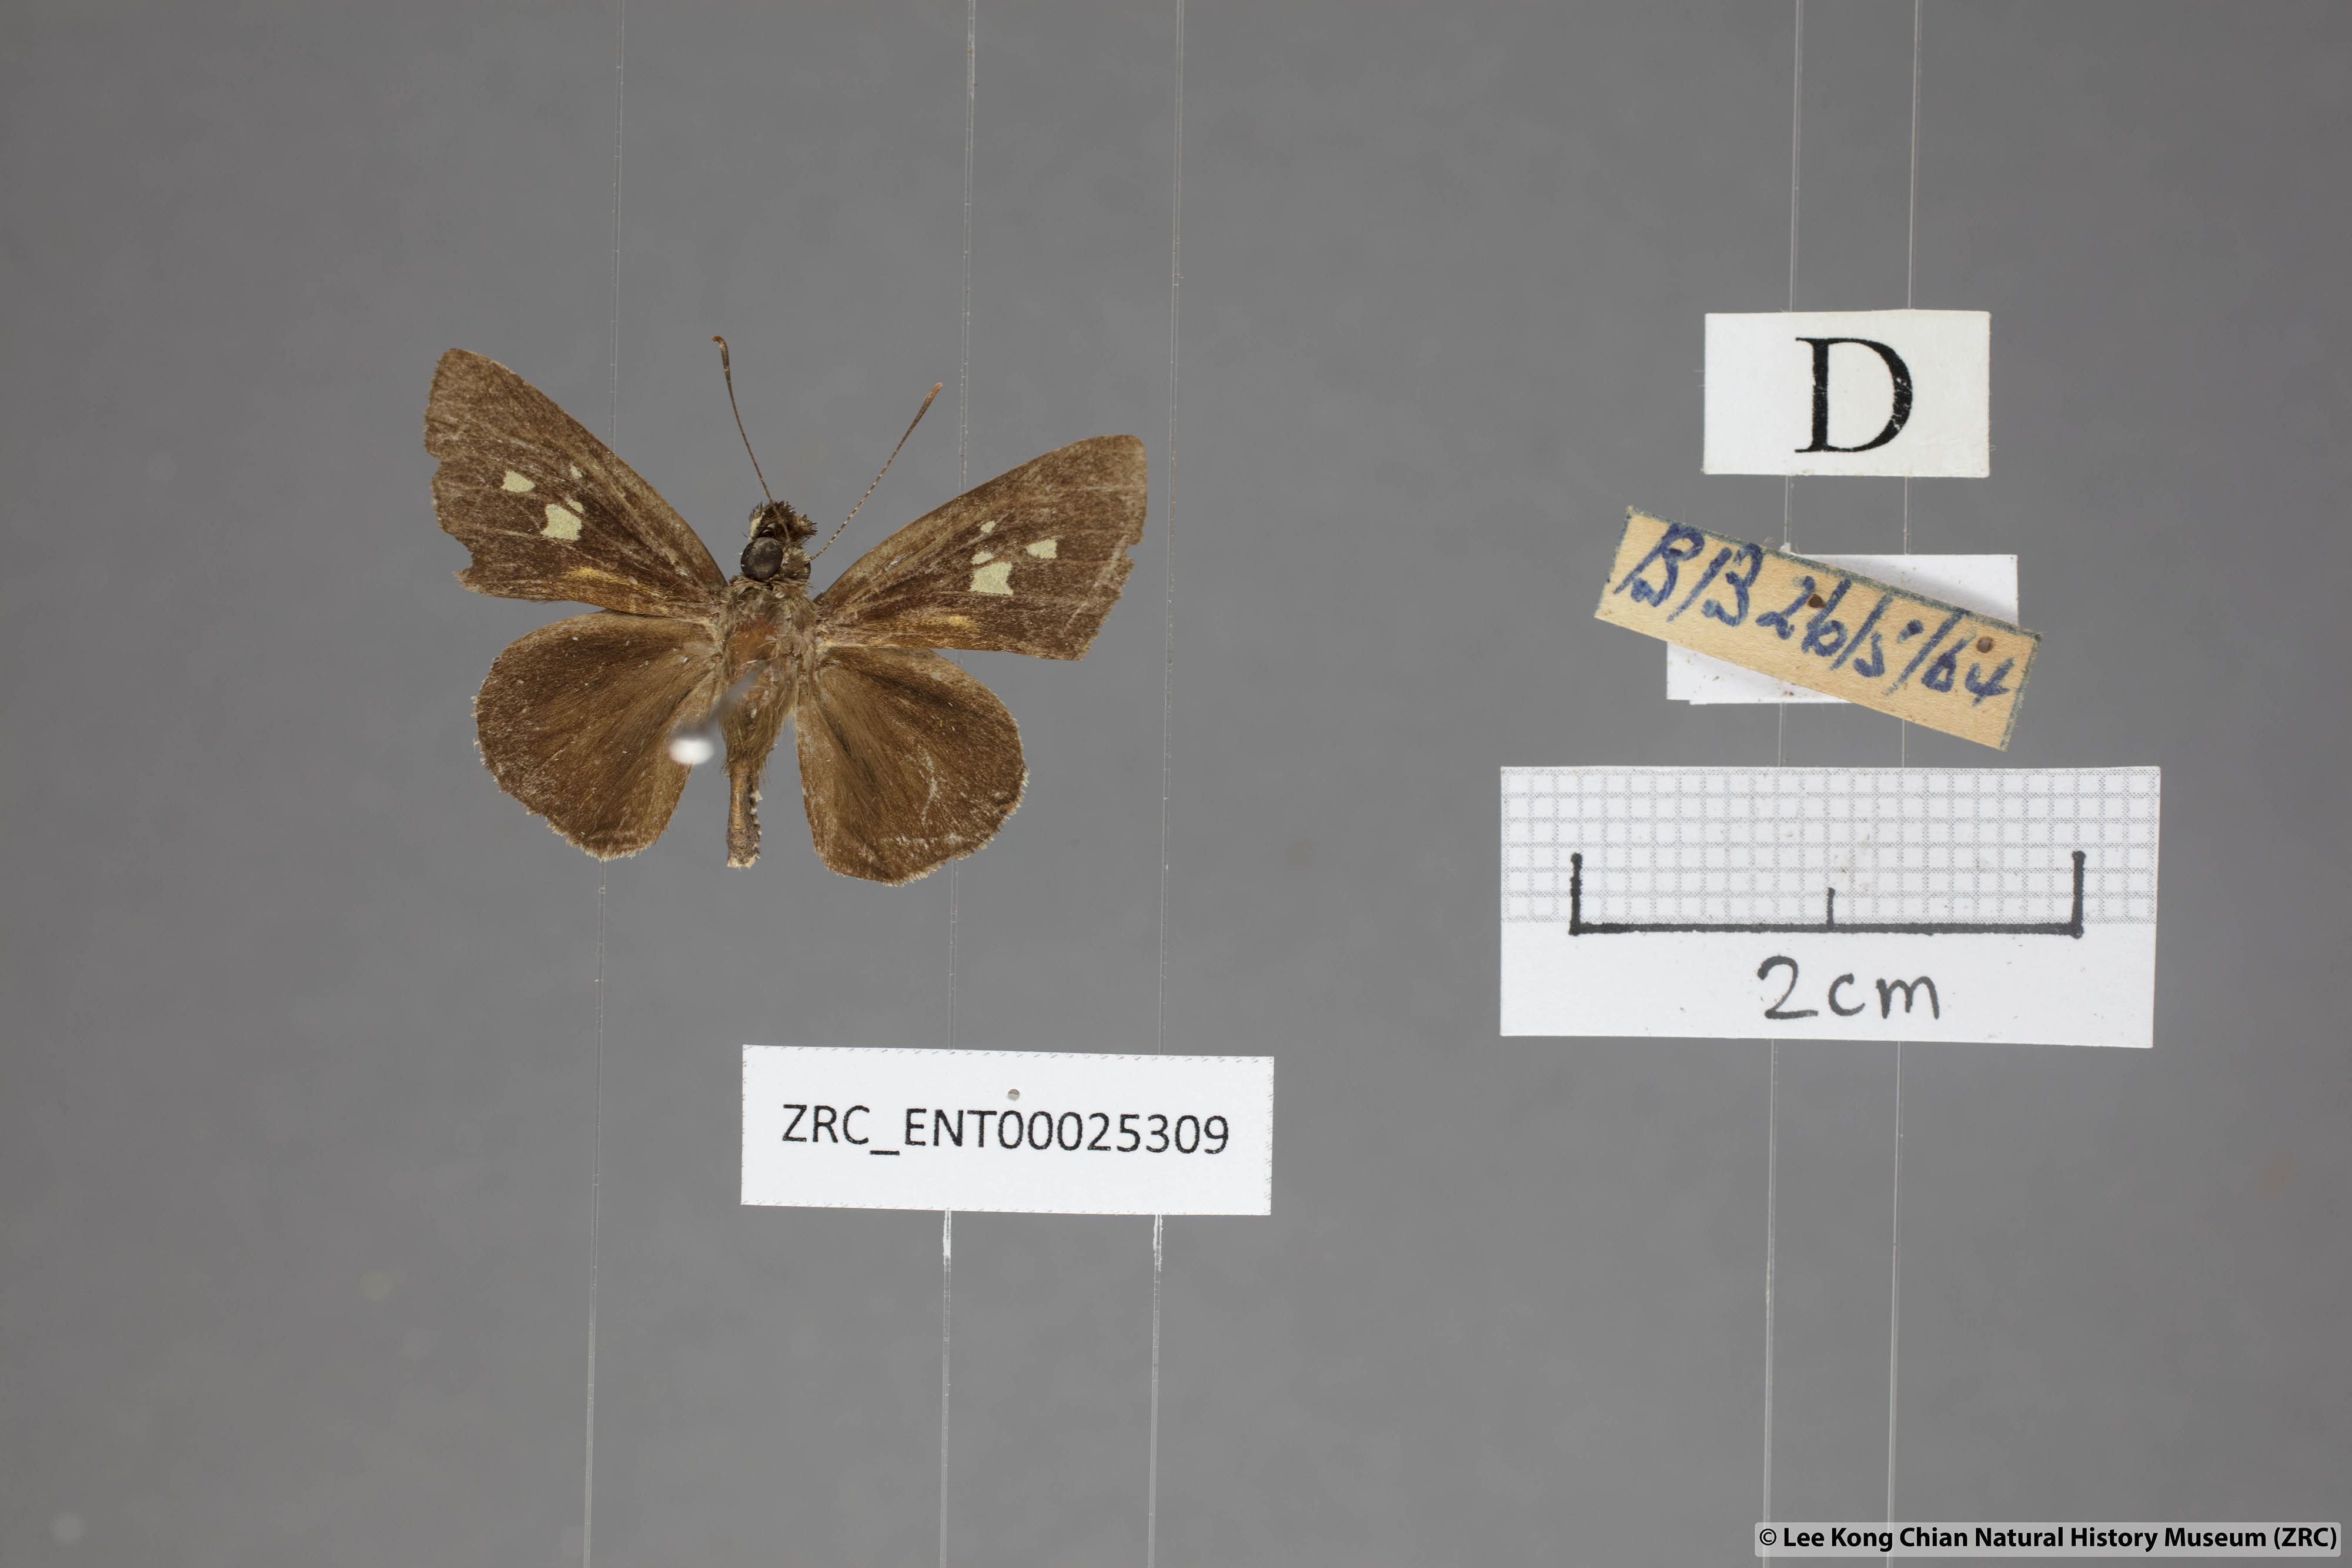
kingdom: Animalia
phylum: Arthropoda
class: Insecta
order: Lepidoptera
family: Hesperiidae
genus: Salanoemia
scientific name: Salanoemia sala
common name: Maculate lancer
